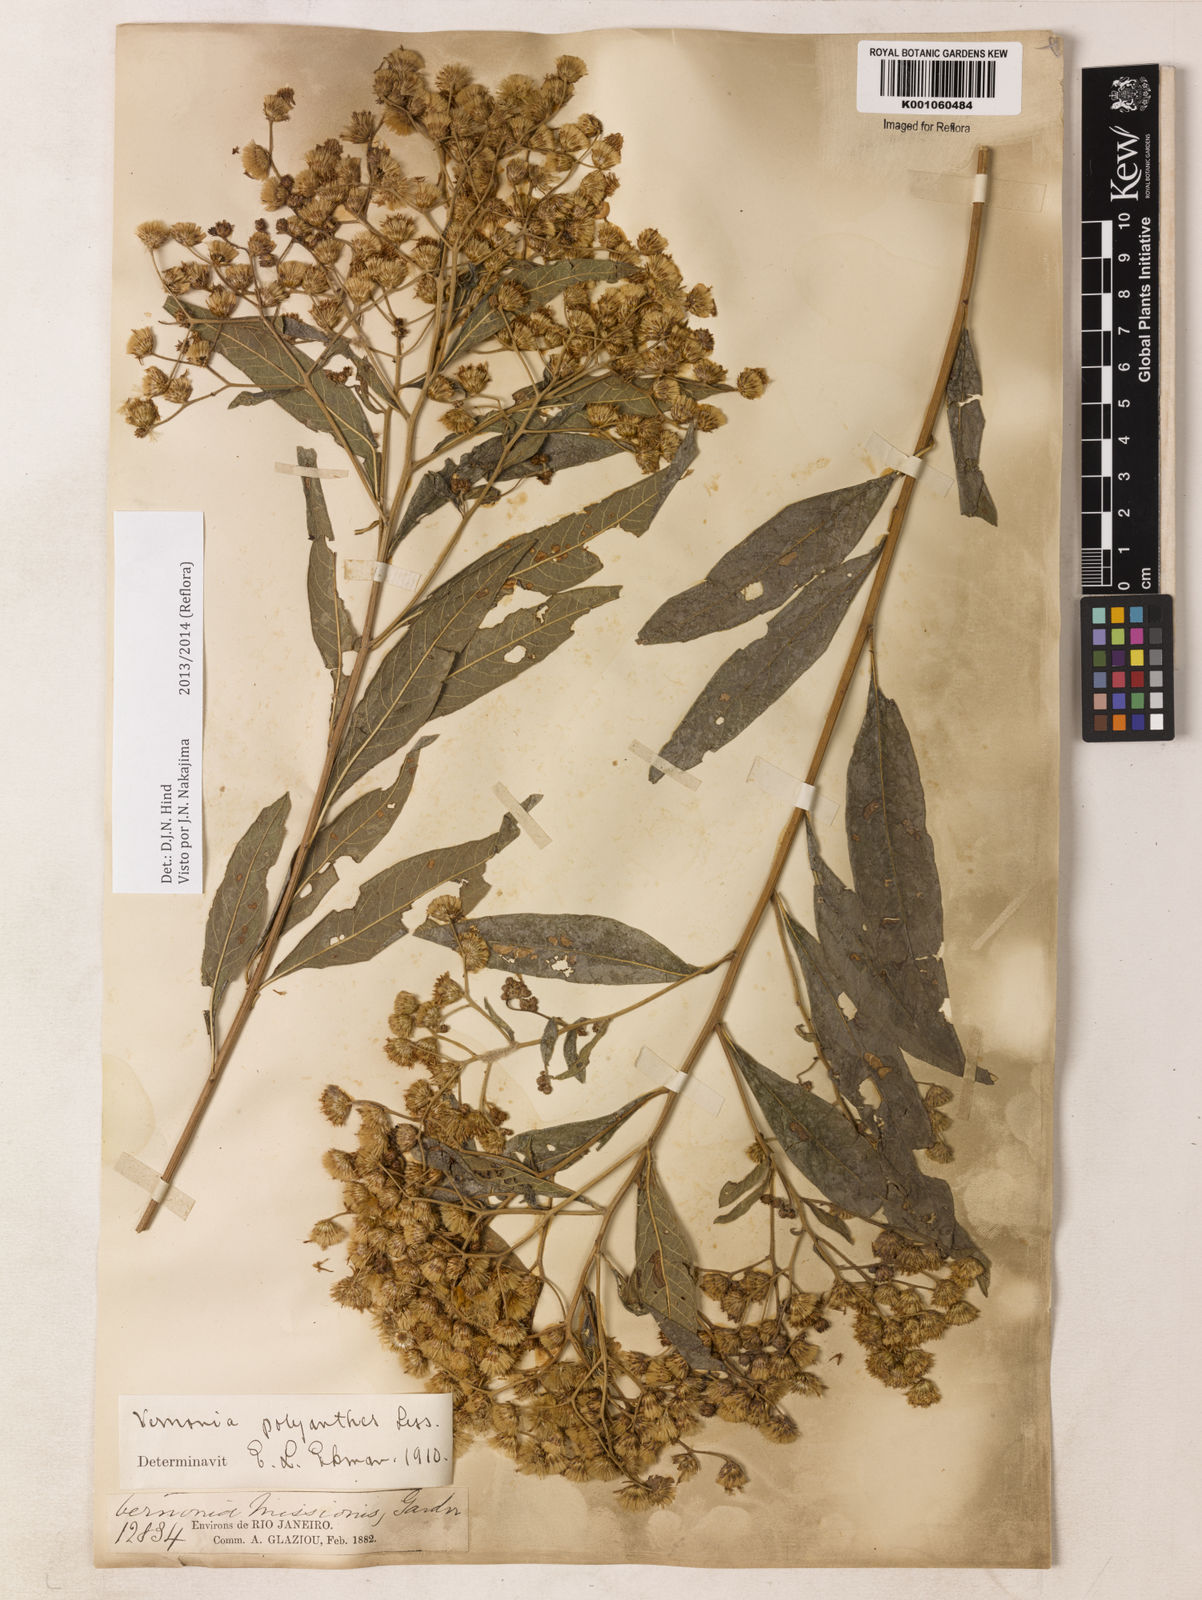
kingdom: Plantae
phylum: Tracheophyta
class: Magnoliopsida
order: Asterales
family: Asteraceae
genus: Vernonanthura
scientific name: Vernonanthura polyanthes
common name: Tree aster
